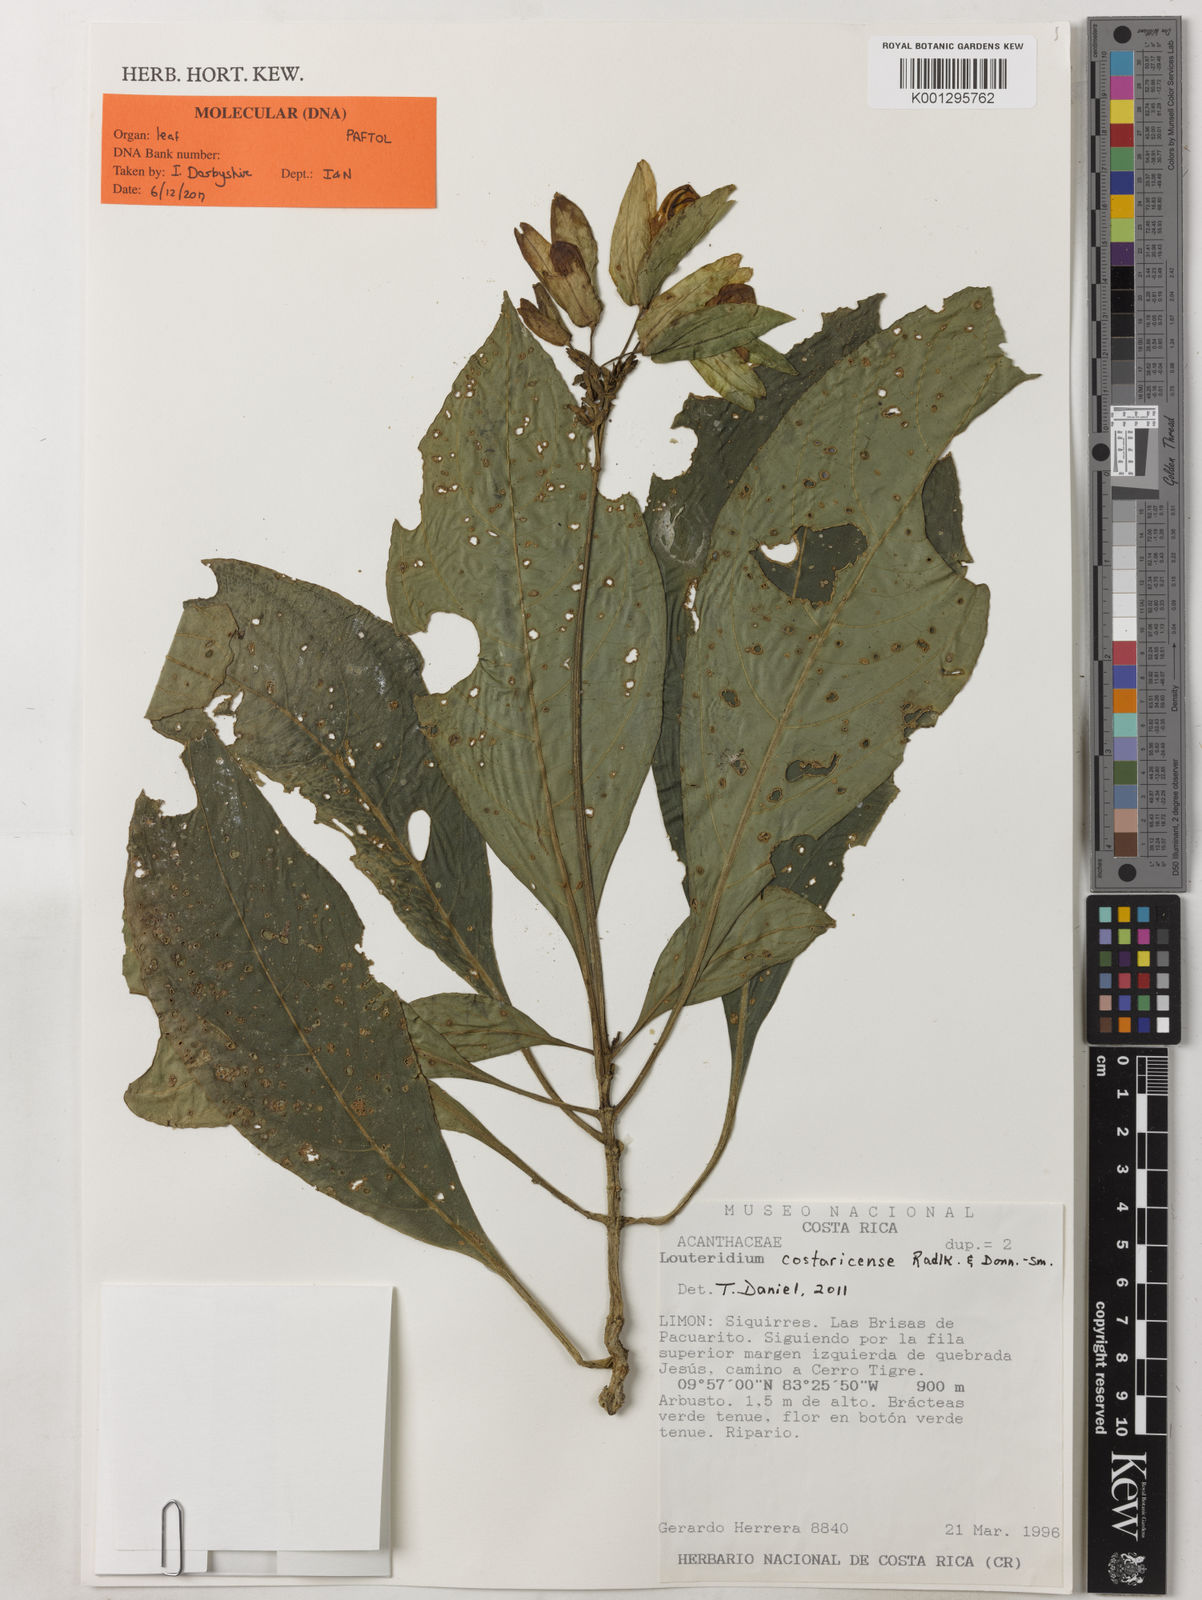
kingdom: Plantae
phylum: Tracheophyta
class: Magnoliopsida
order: Lamiales
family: Acanthaceae
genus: Louteridium
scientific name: Louteridium costaricense
